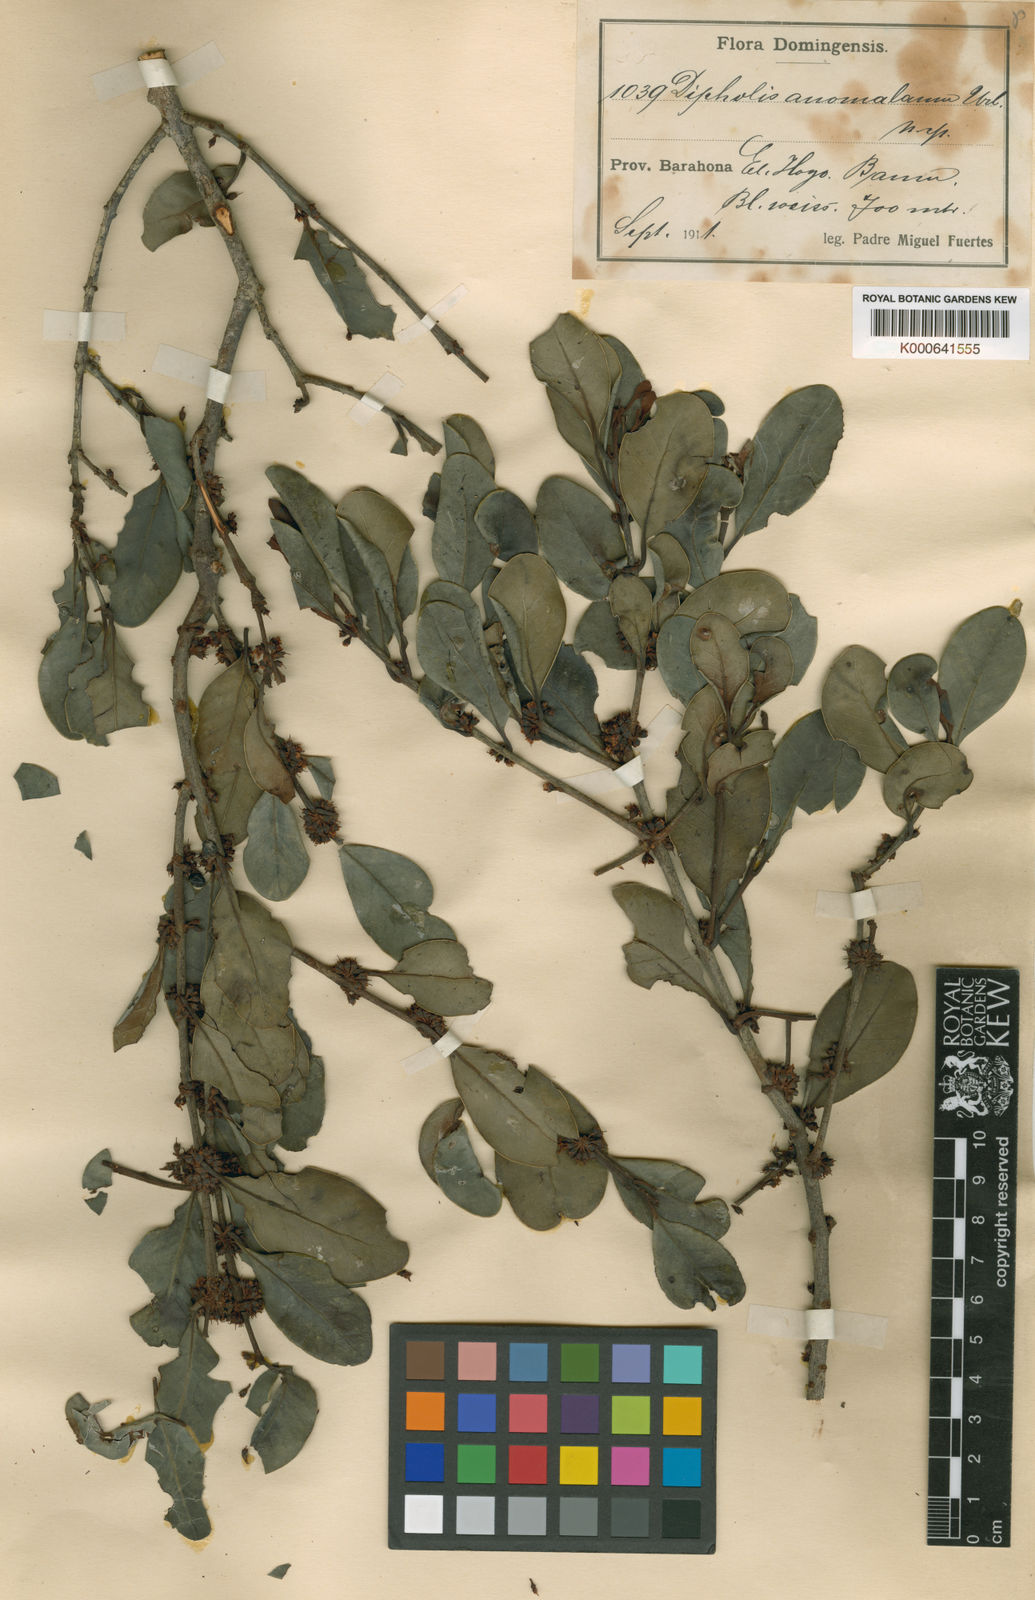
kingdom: Plantae
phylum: Tracheophyta
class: Magnoliopsida
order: Ericales
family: Sapotaceae
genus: Sideroxylon
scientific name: Sideroxylon anomalum
